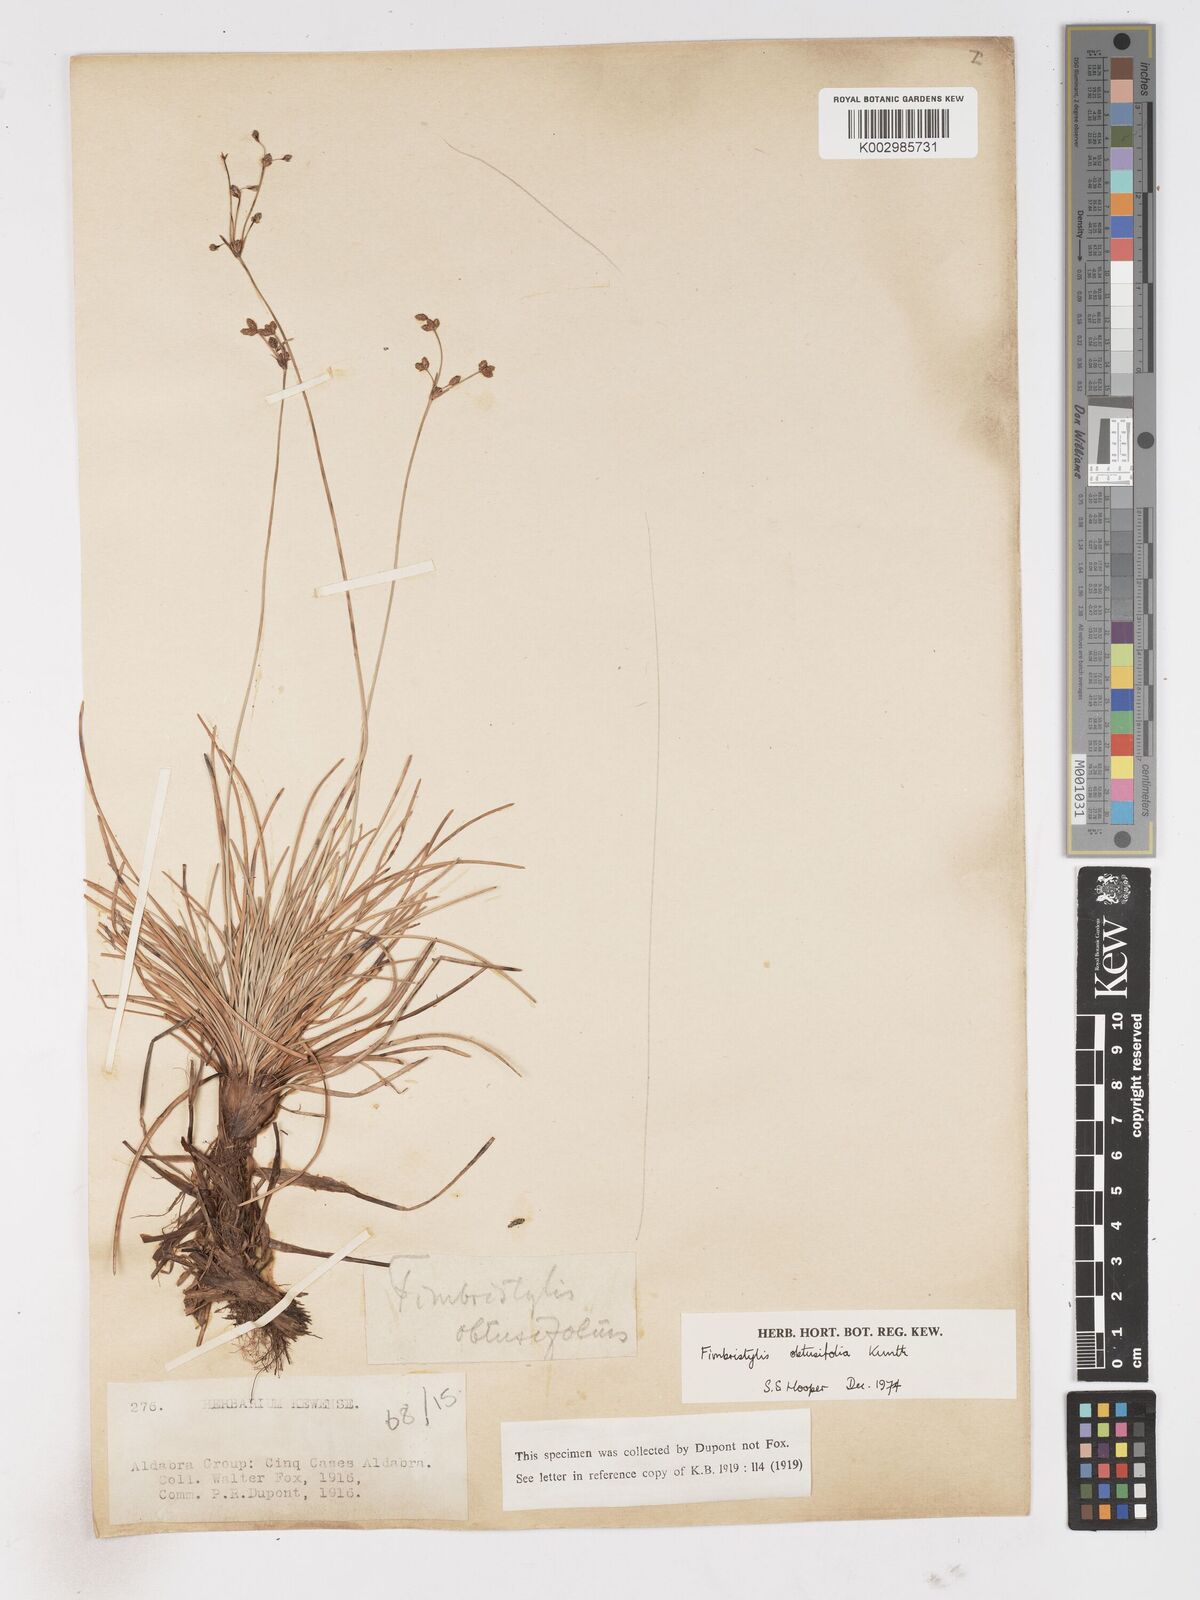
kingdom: Plantae
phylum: Tracheophyta
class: Liliopsida
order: Poales
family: Cyperaceae
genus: Fimbristylis
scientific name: Fimbristylis cymosa
